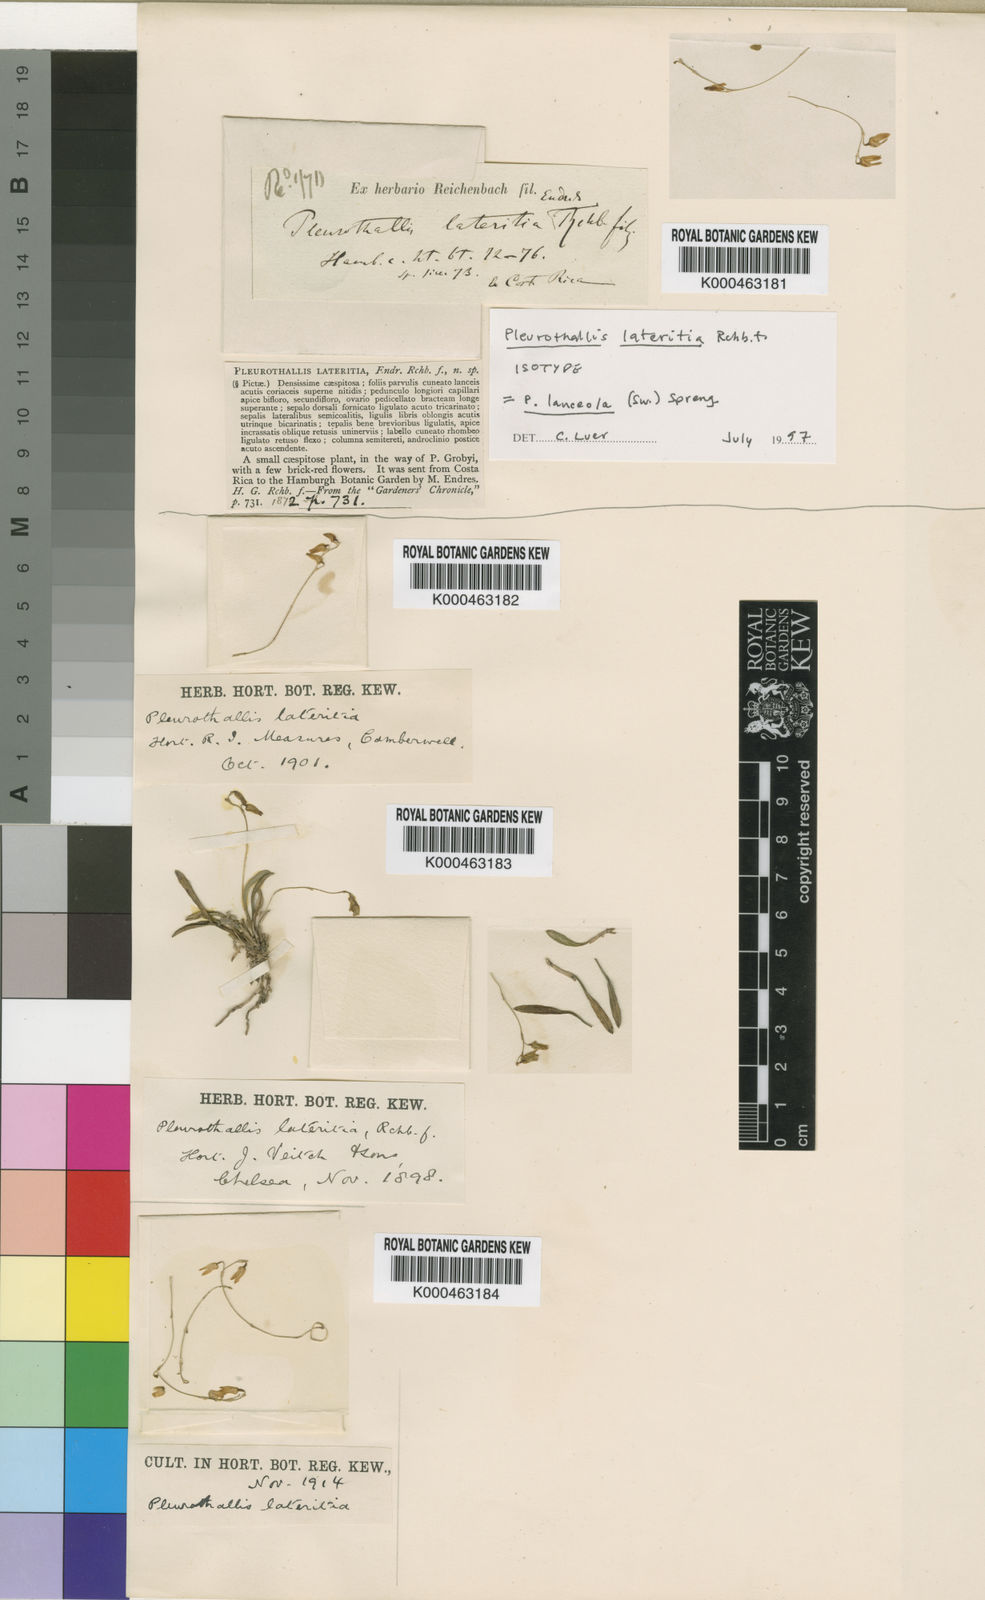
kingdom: Plantae
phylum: Tracheophyta
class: Liliopsida
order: Asparagales
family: Orchidaceae
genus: Specklinia
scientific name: Specklinia lanceola
